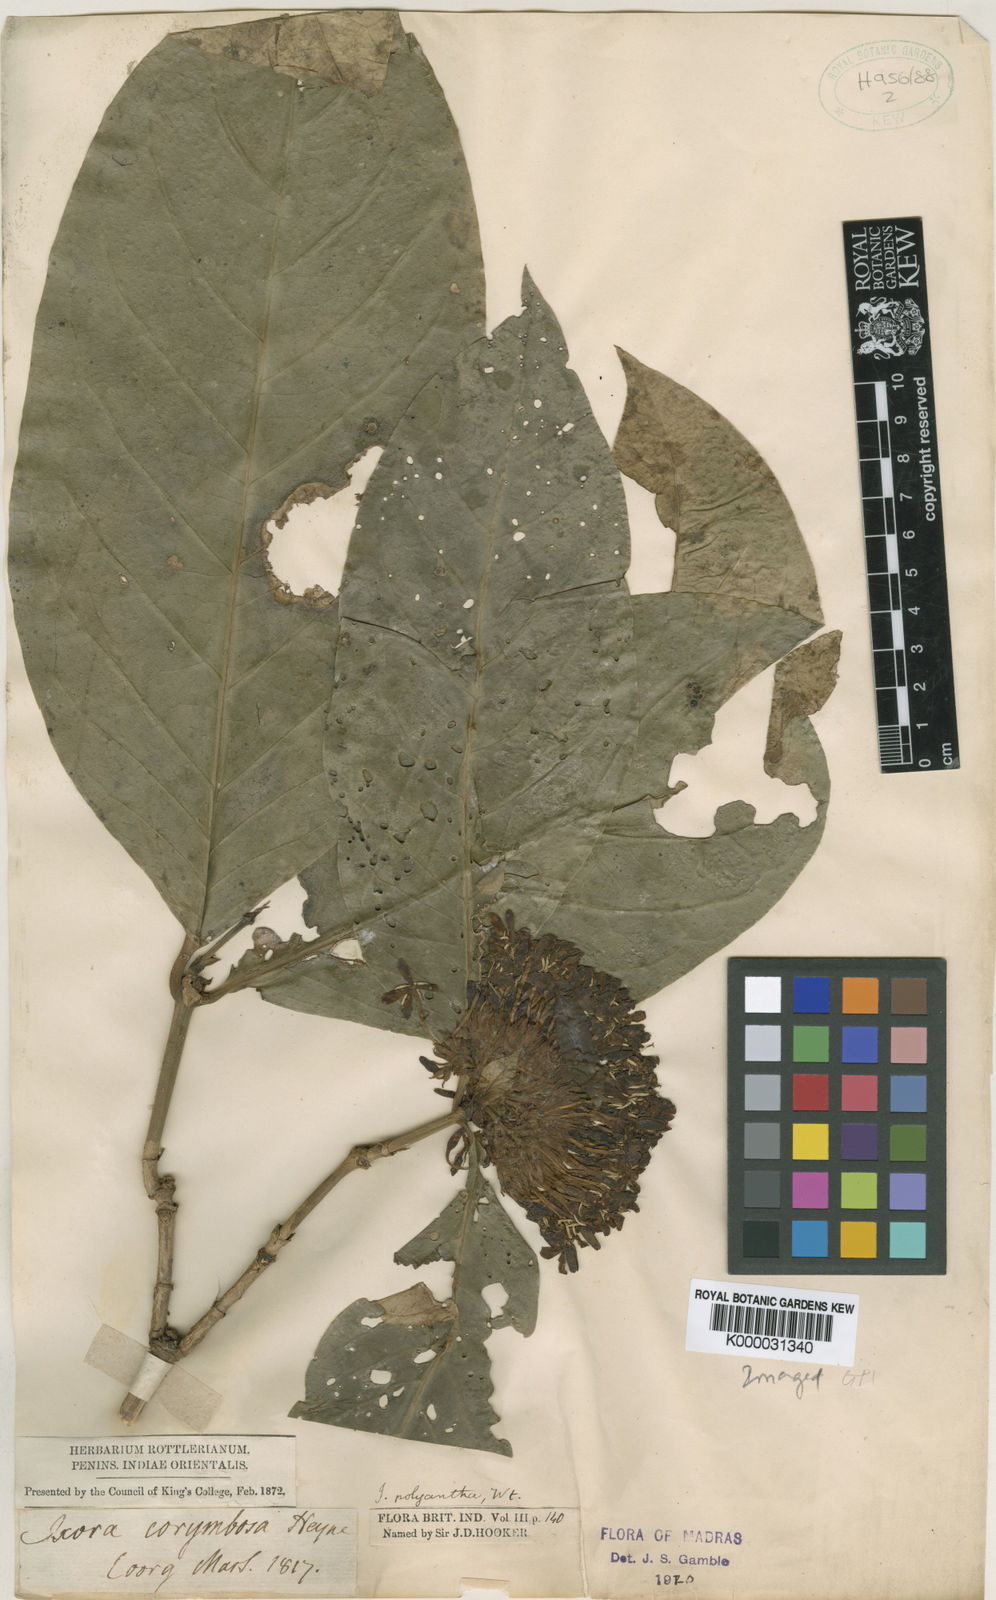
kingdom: Plantae
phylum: Tracheophyta
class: Magnoliopsida
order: Gentianales
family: Rubiaceae
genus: Ixora
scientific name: Ixora
